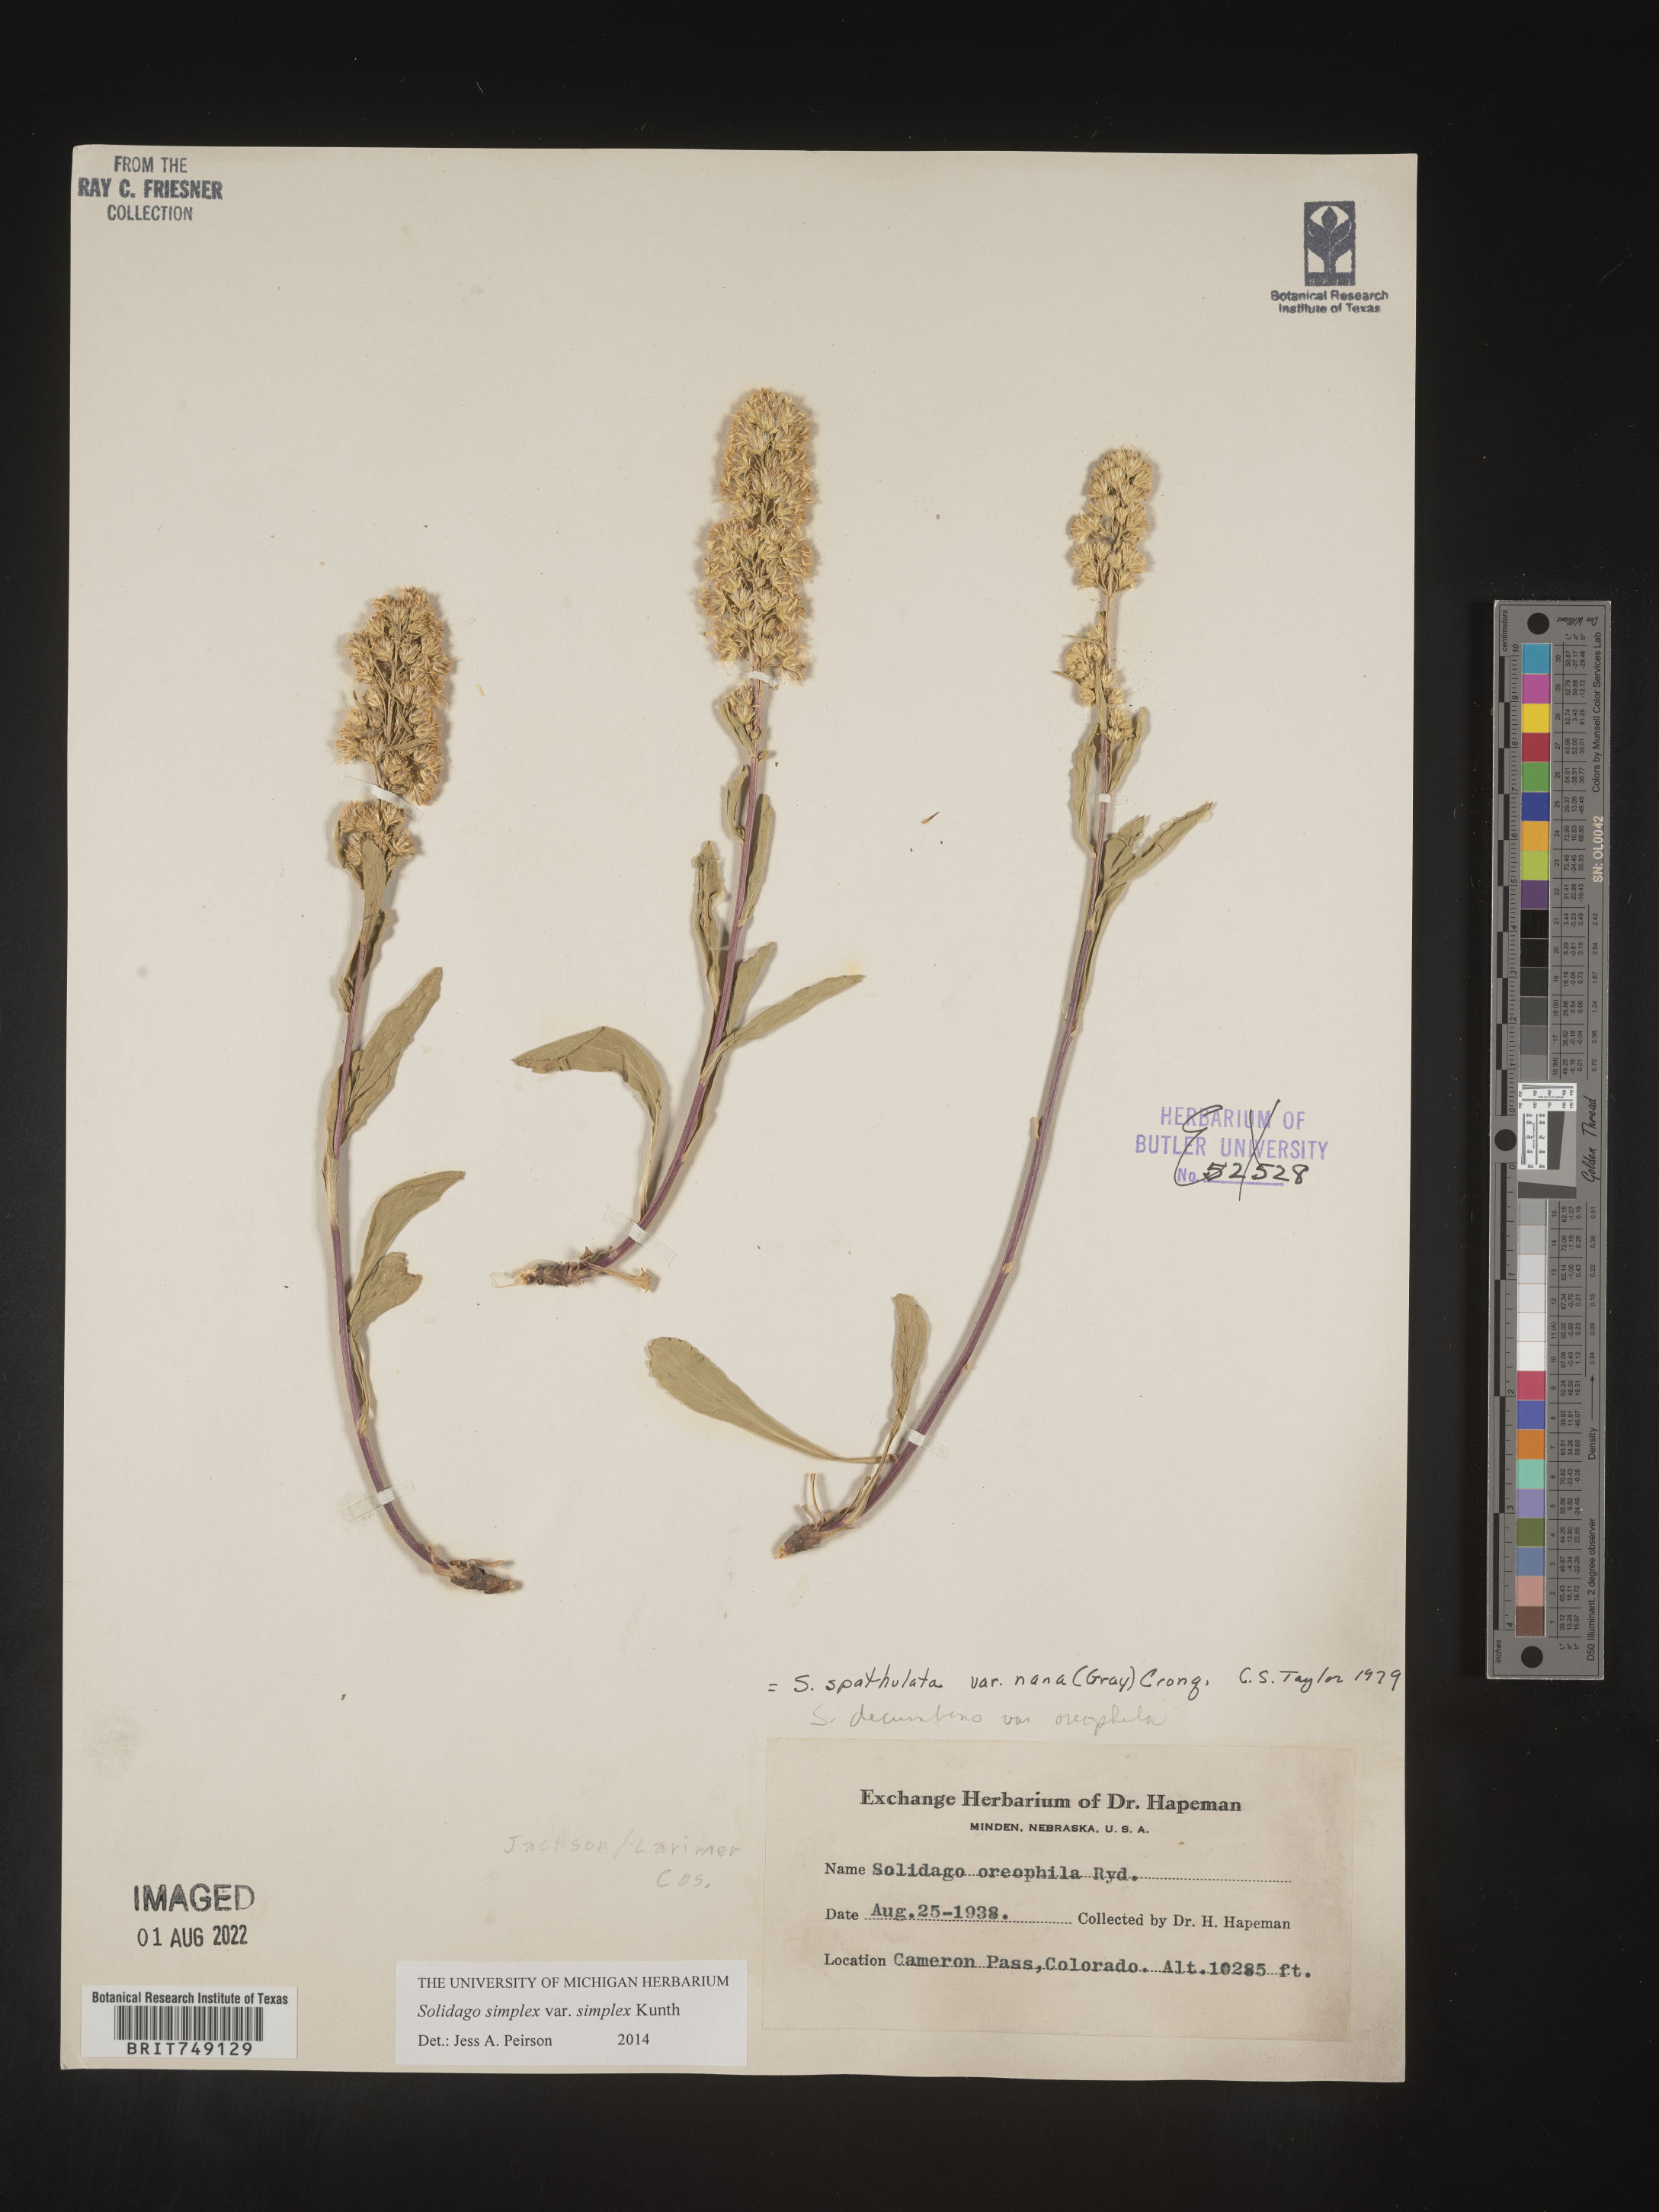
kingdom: Plantae
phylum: Tracheophyta
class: Magnoliopsida
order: Asterales
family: Asteraceae
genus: Solidago
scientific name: Solidago simplex
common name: Sticky goldenrod
